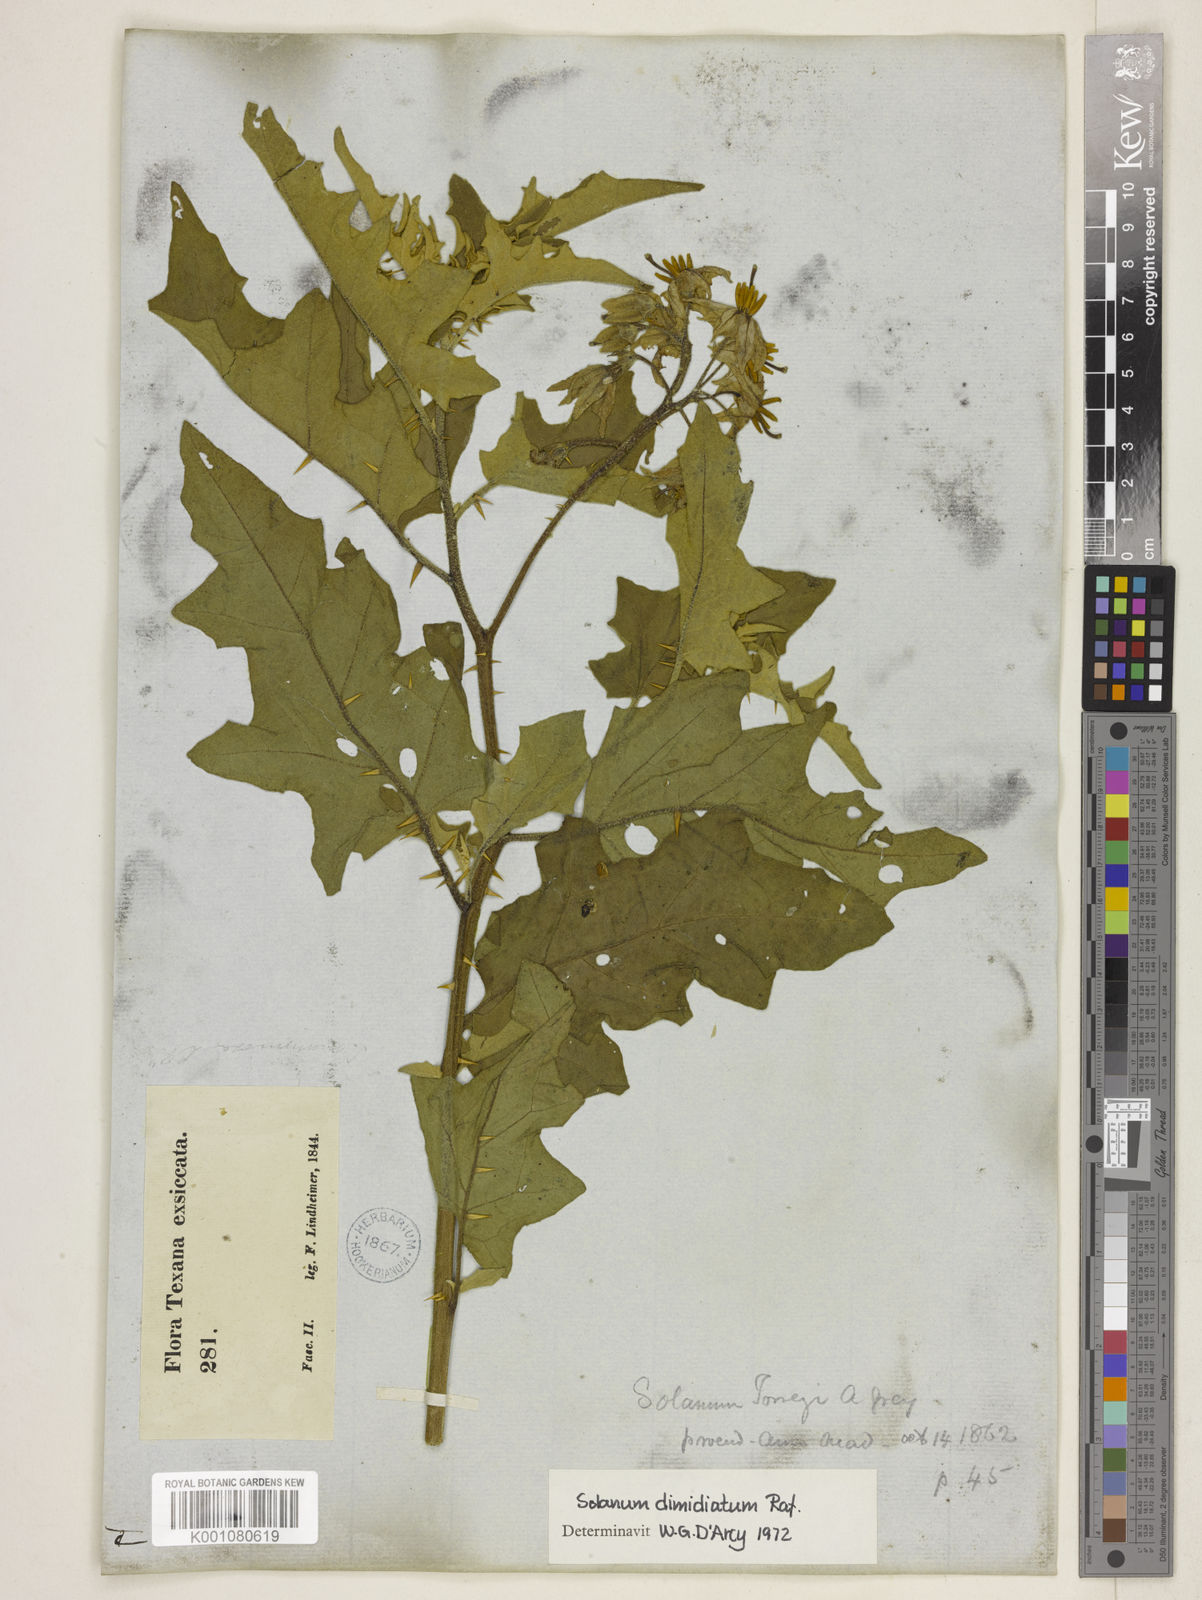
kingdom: Plantae
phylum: Tracheophyta
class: Magnoliopsida
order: Solanales
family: Solanaceae
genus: Solanum
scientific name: Solanum dimidiatum
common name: Carolina horse-nettle
